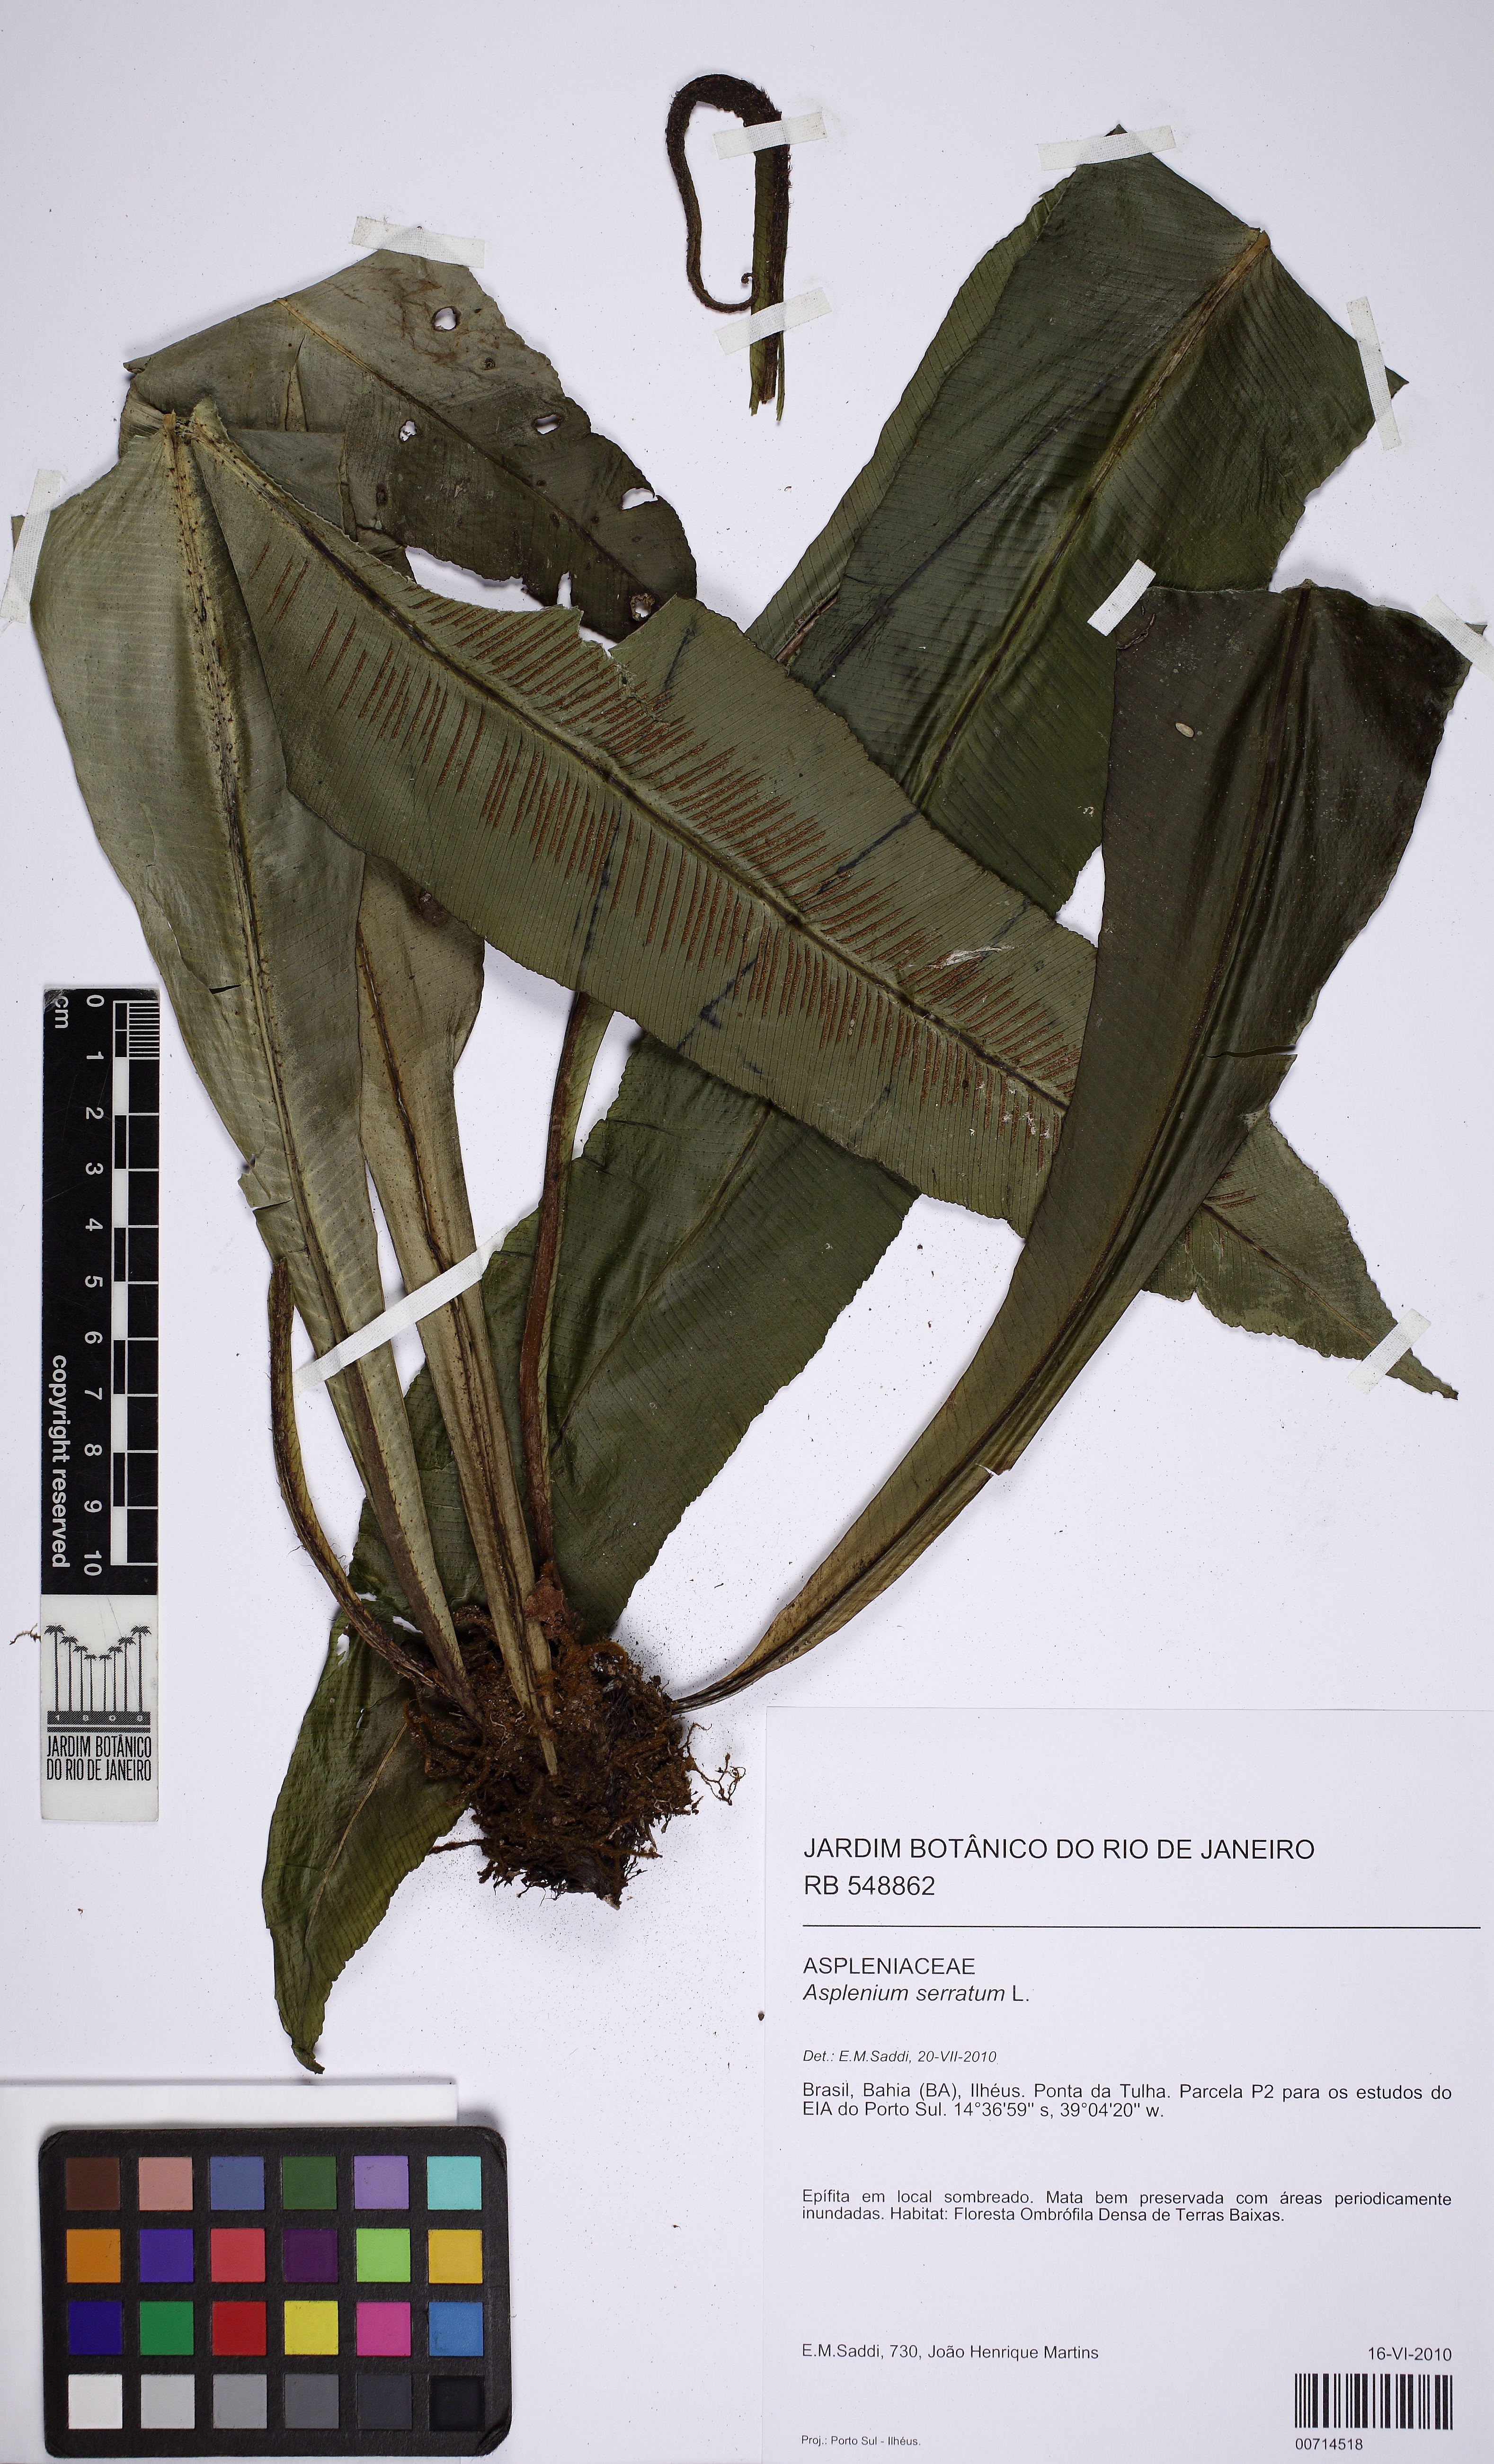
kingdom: Plantae
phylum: Tracheophyta
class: Polypodiopsida
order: Polypodiales
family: Aspleniaceae
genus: Asplenium
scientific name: Asplenium serratum
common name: Wild birdnest fern
